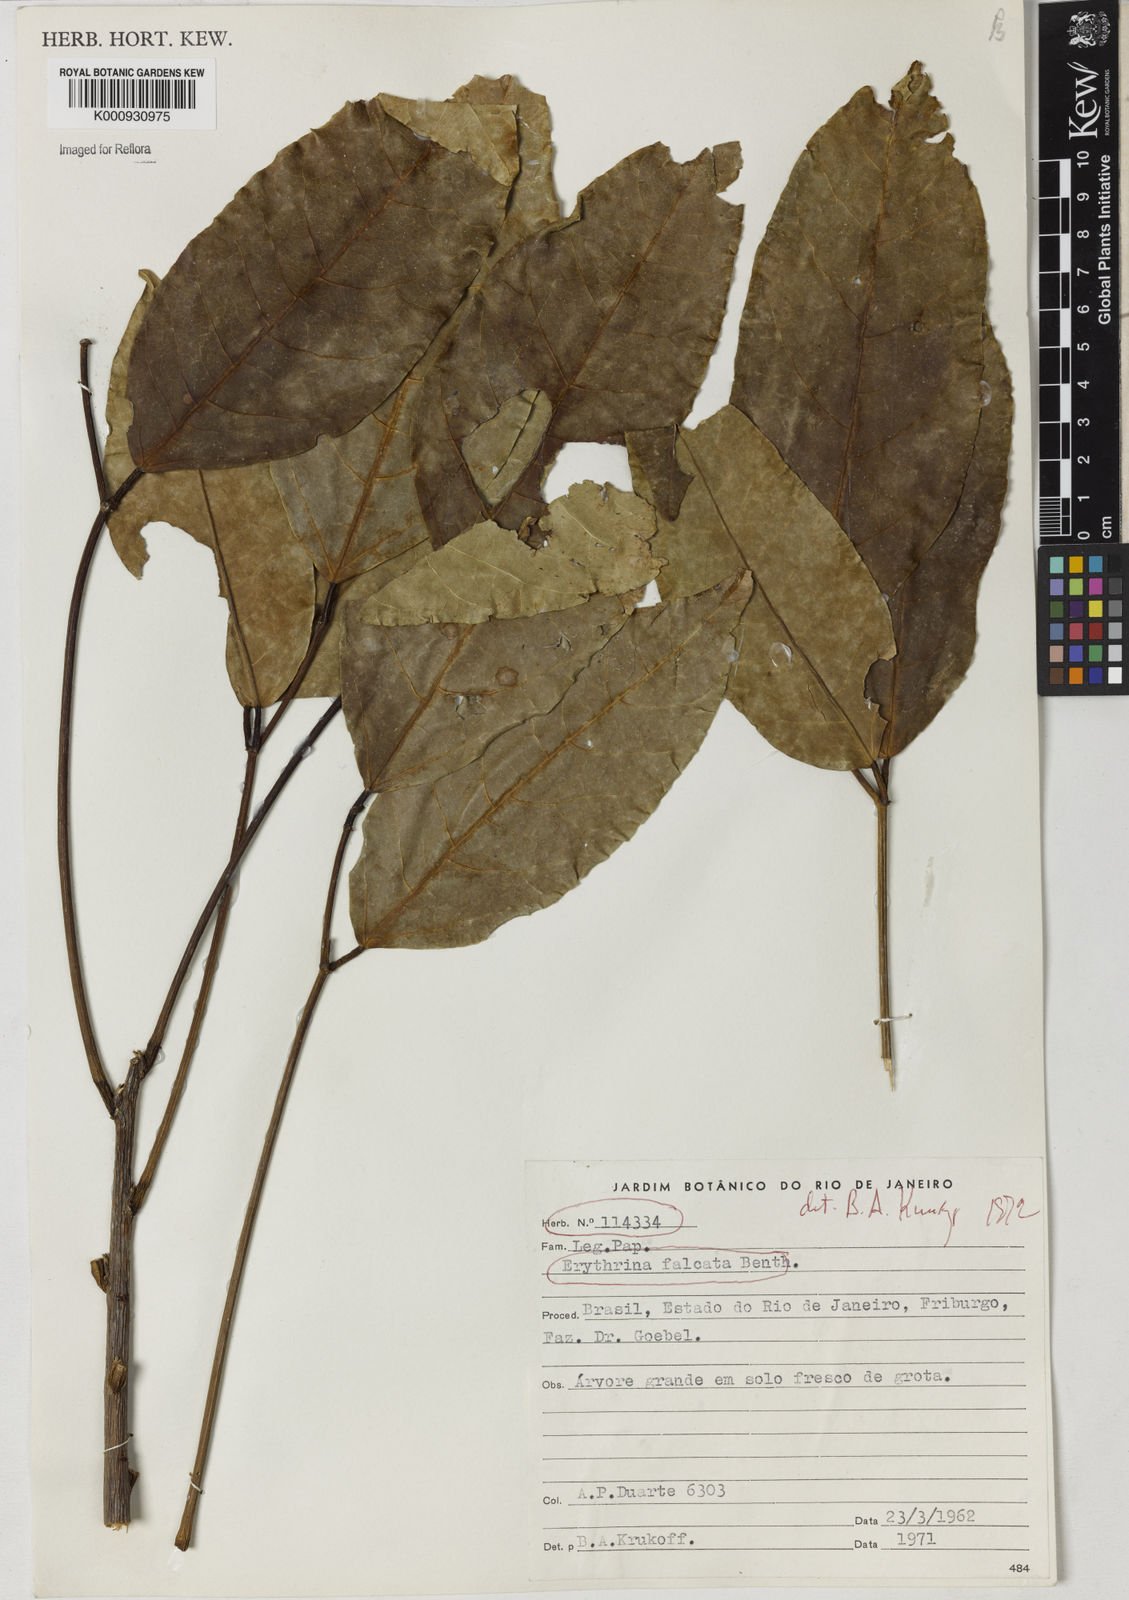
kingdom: Plantae
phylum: Tracheophyta
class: Magnoliopsida
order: Fabales
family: Fabaceae
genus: Erythrina
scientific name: Erythrina falcata
